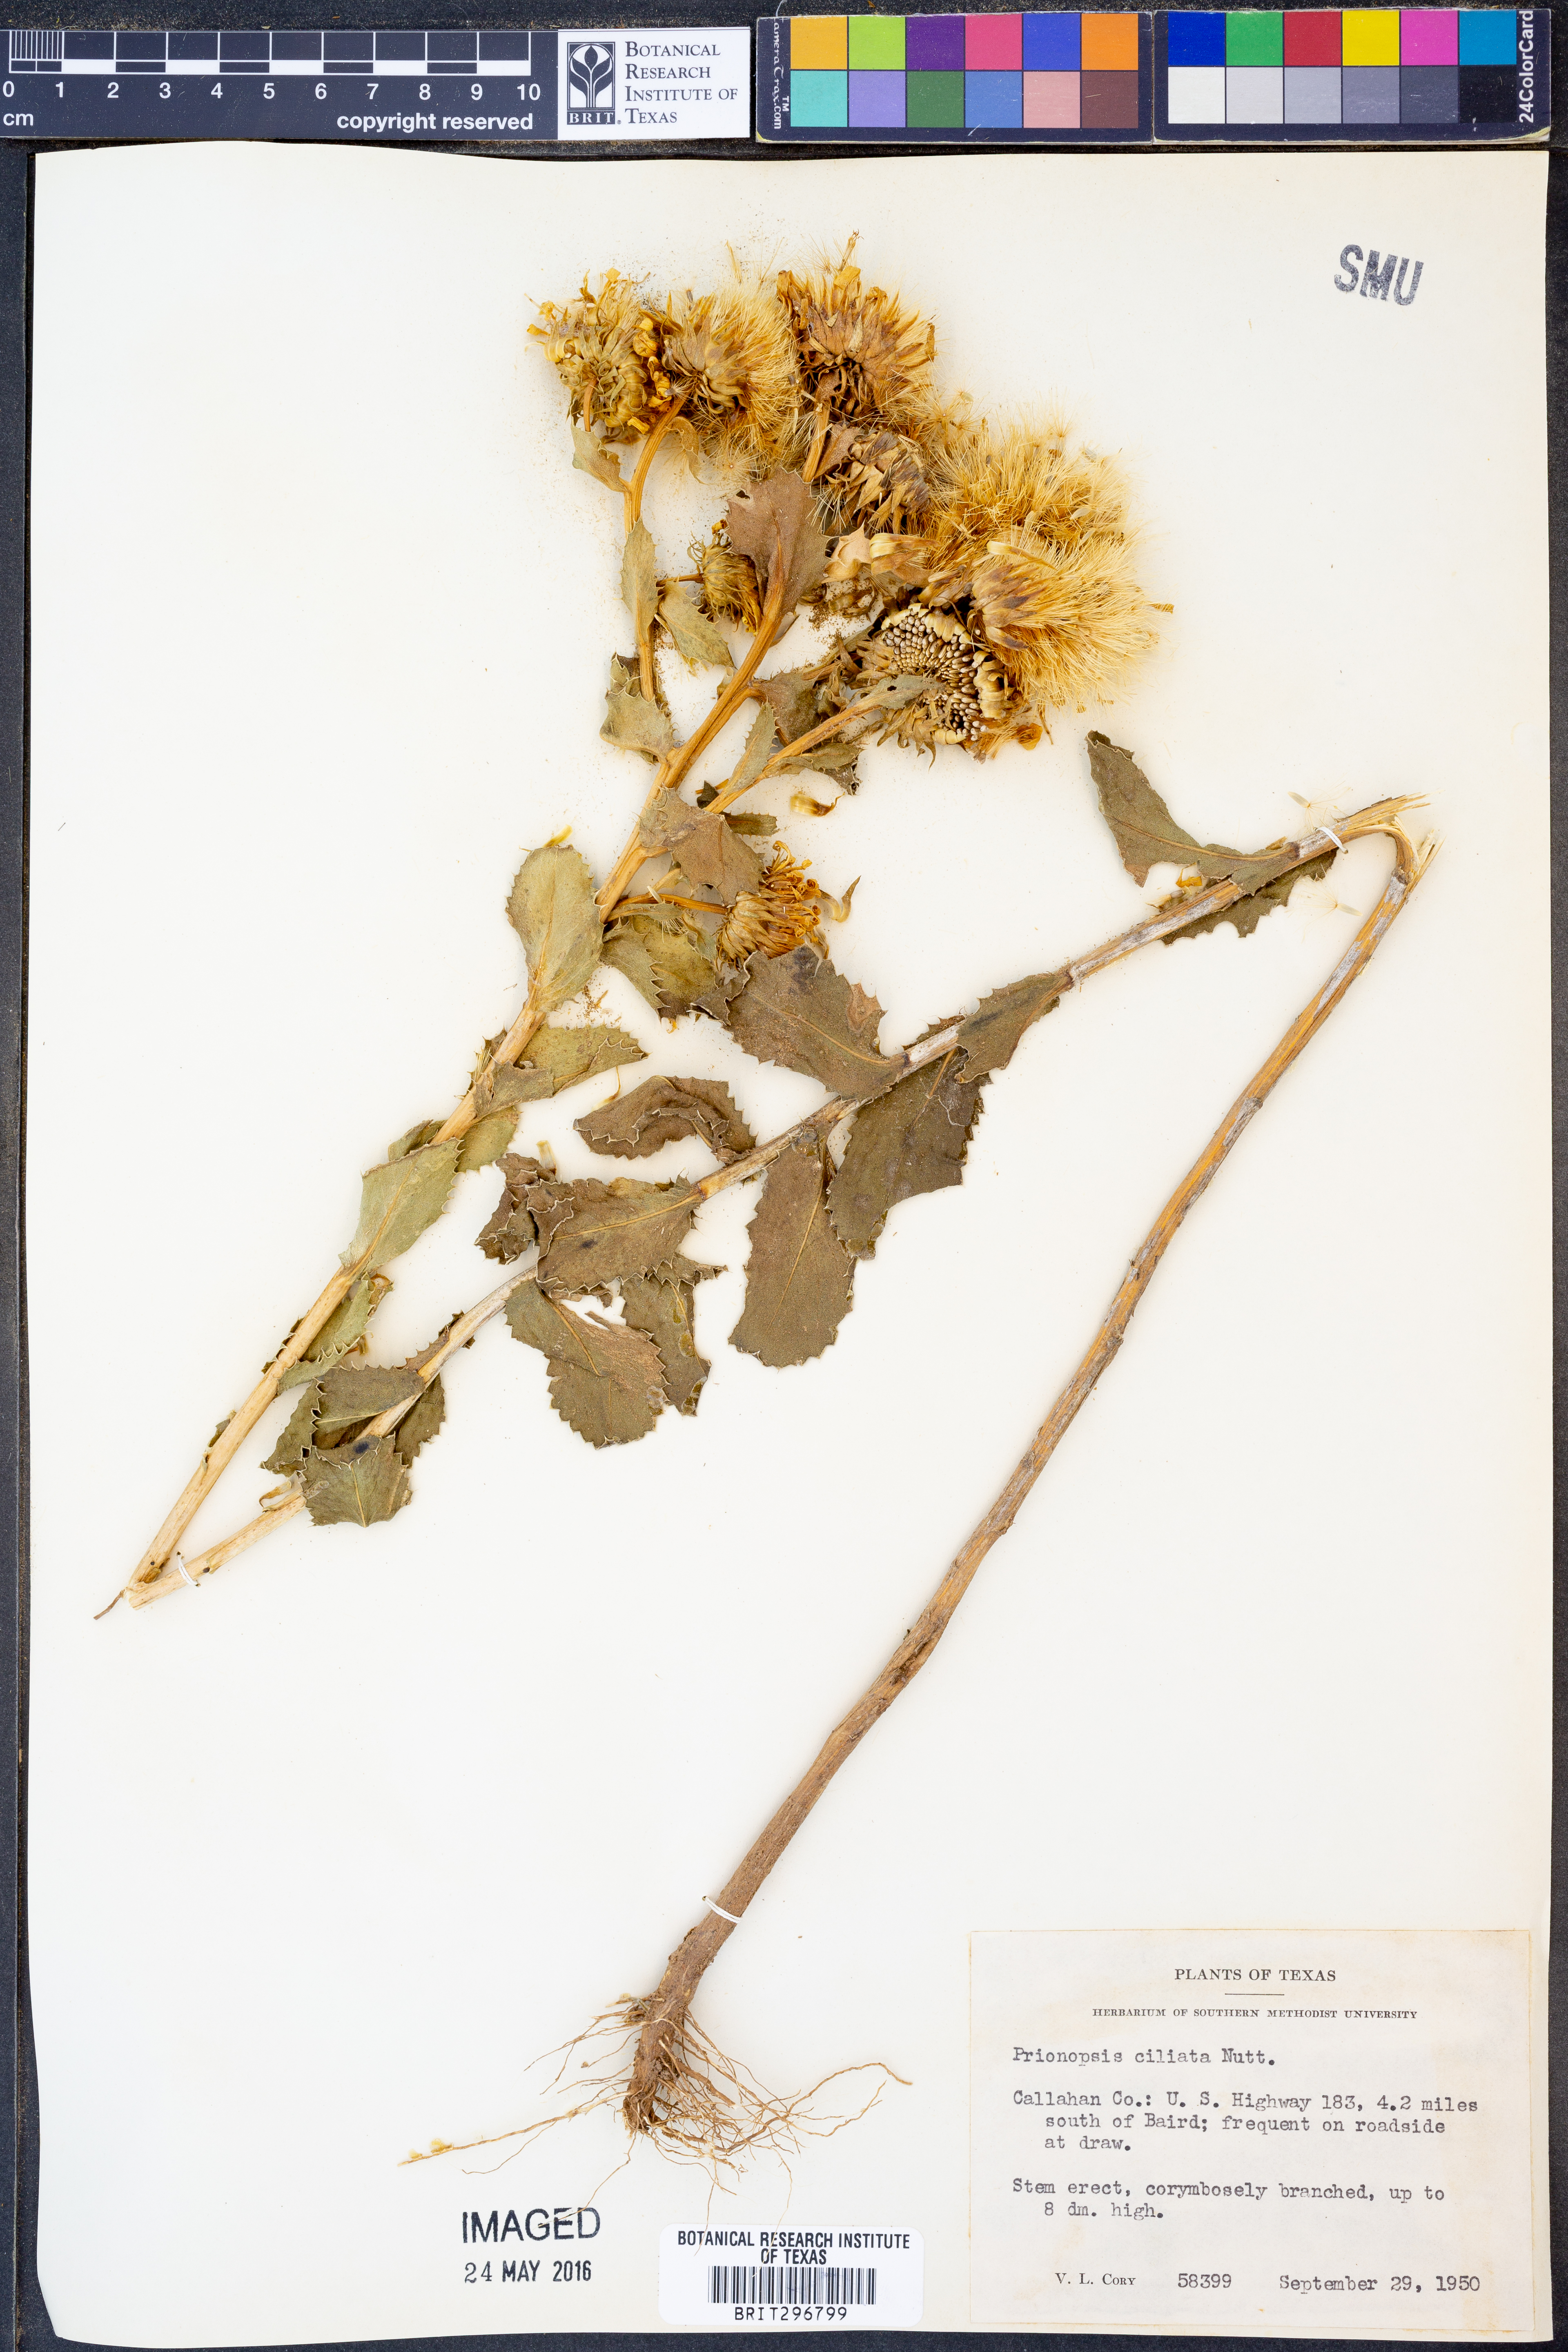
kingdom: Plantae
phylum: Tracheophyta
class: Magnoliopsida
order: Asterales
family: Asteraceae
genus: Grindelia
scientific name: Grindelia ciliata
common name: Goldenweed
